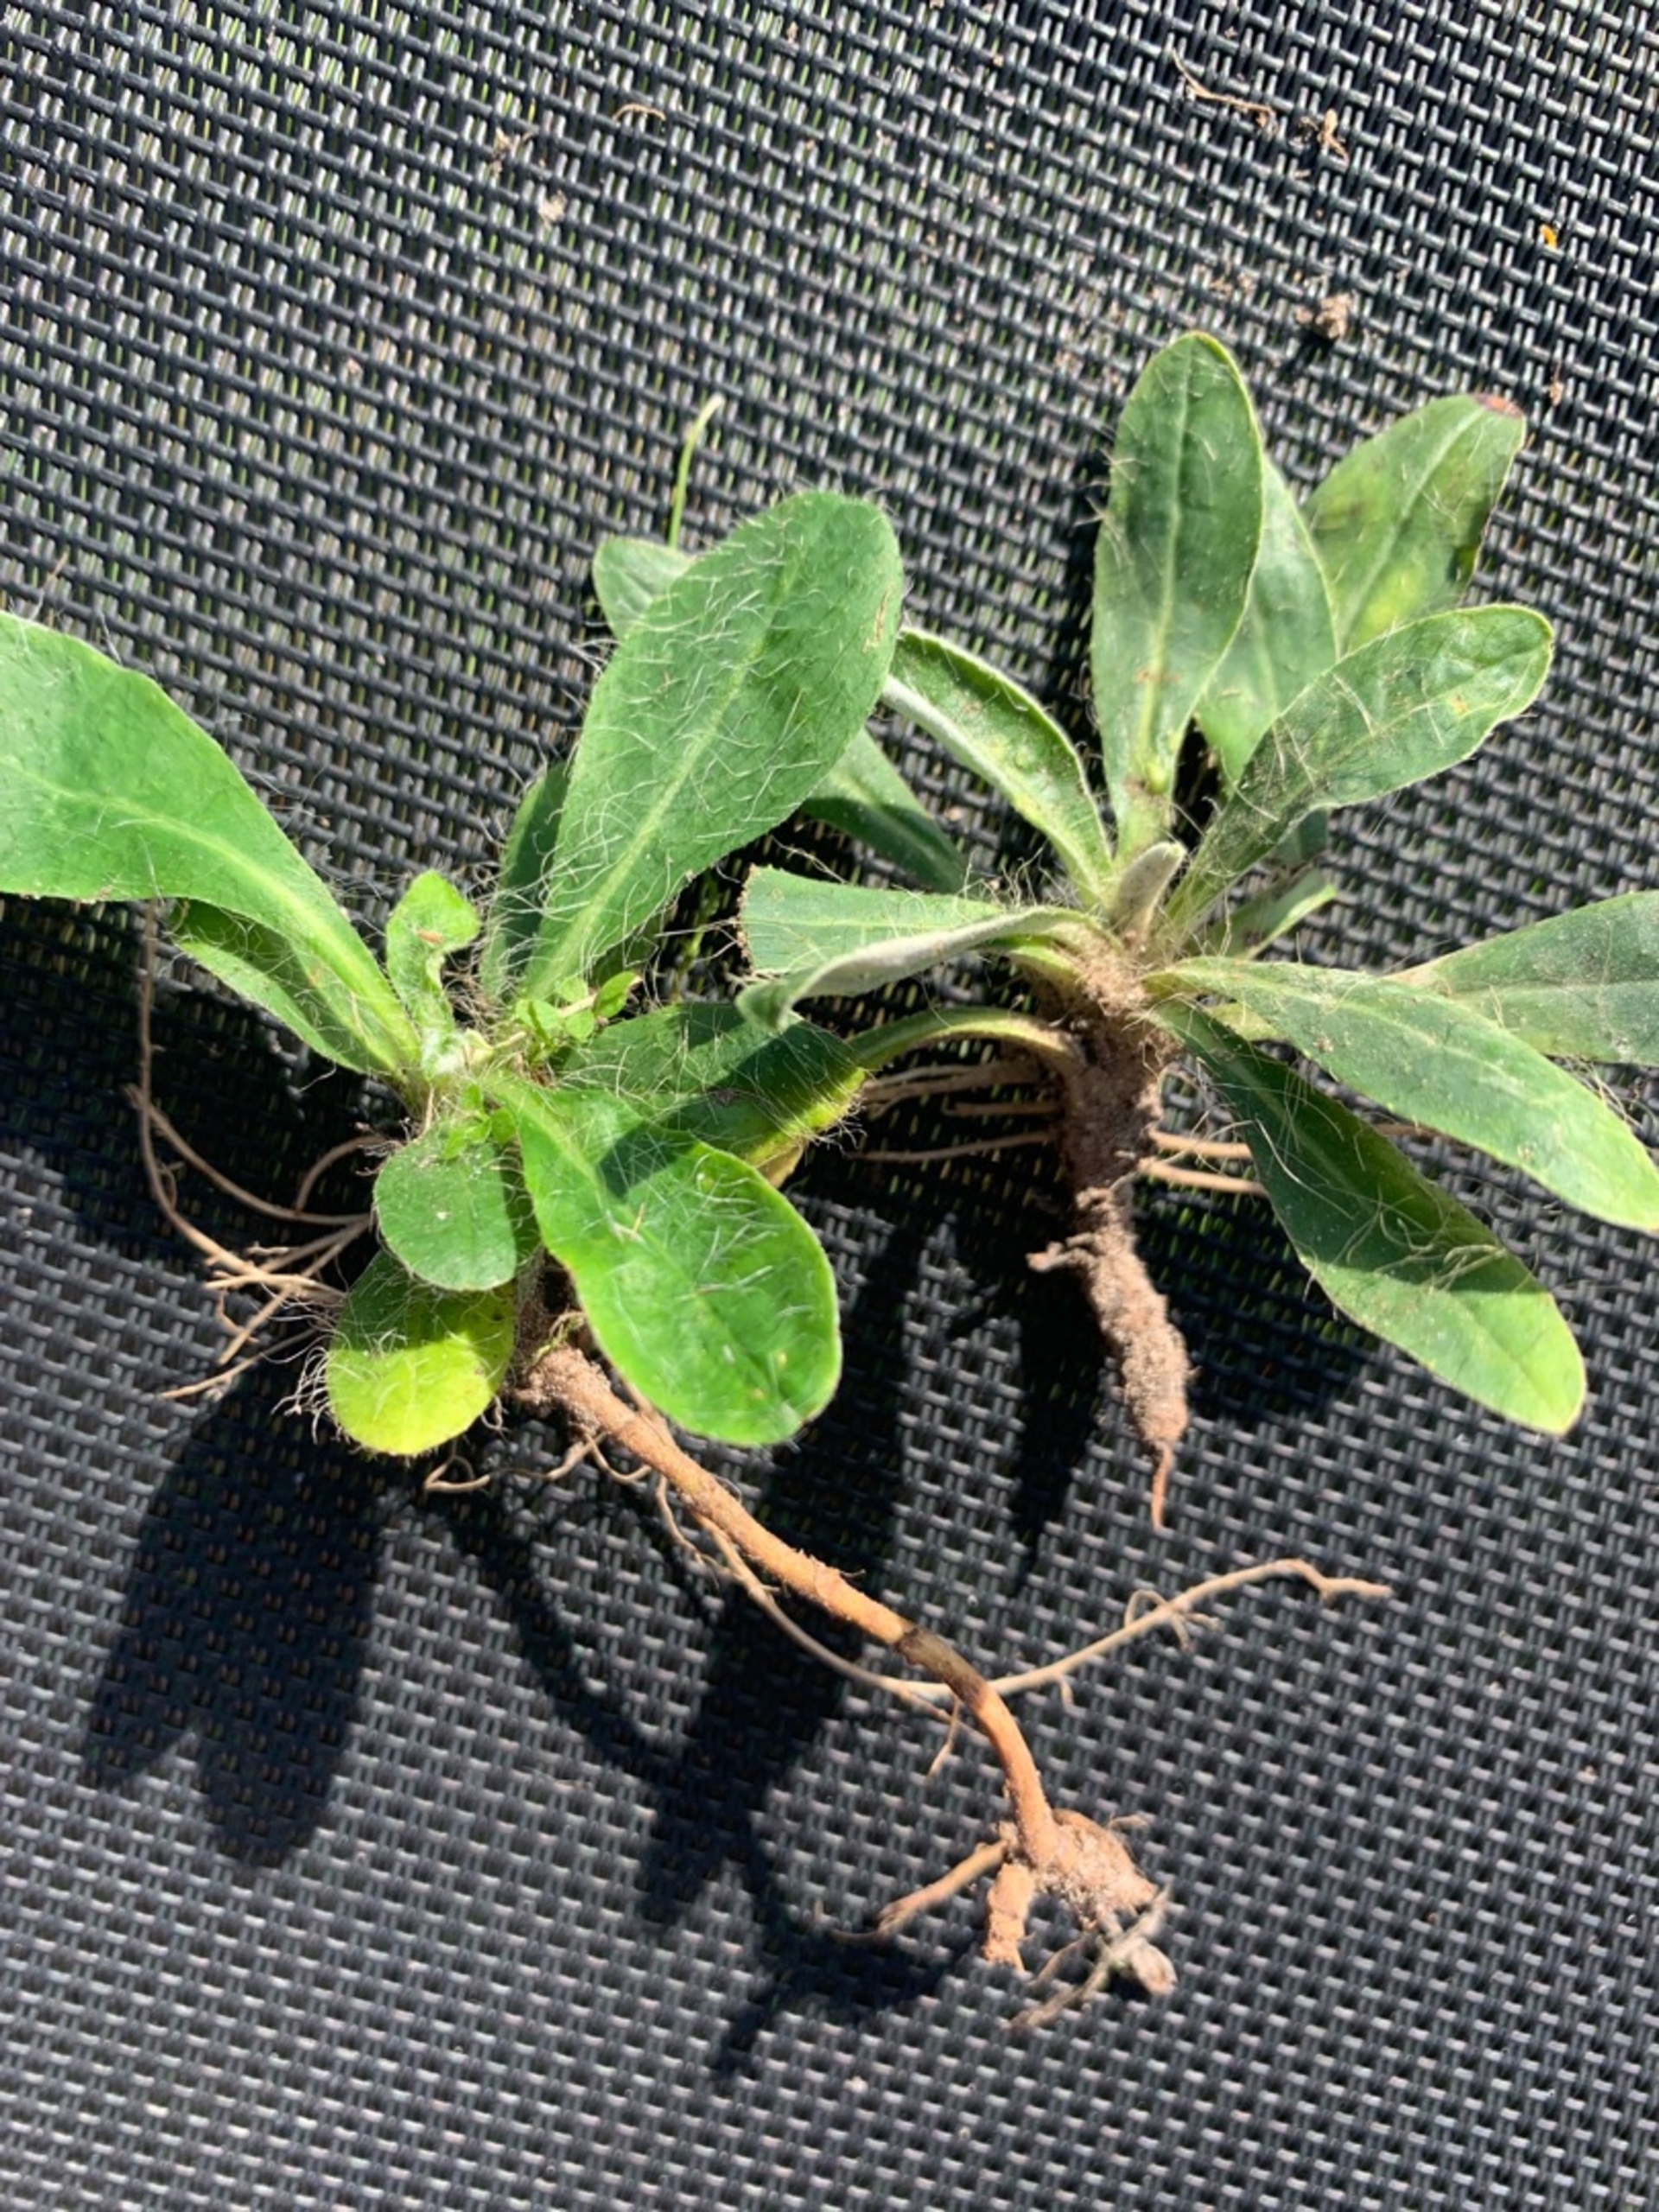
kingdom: Plantae
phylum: Tracheophyta
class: Magnoliopsida
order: Asterales
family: Asteraceae
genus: Pilosella
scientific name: Pilosella officinarum
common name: Håret høgeurt
